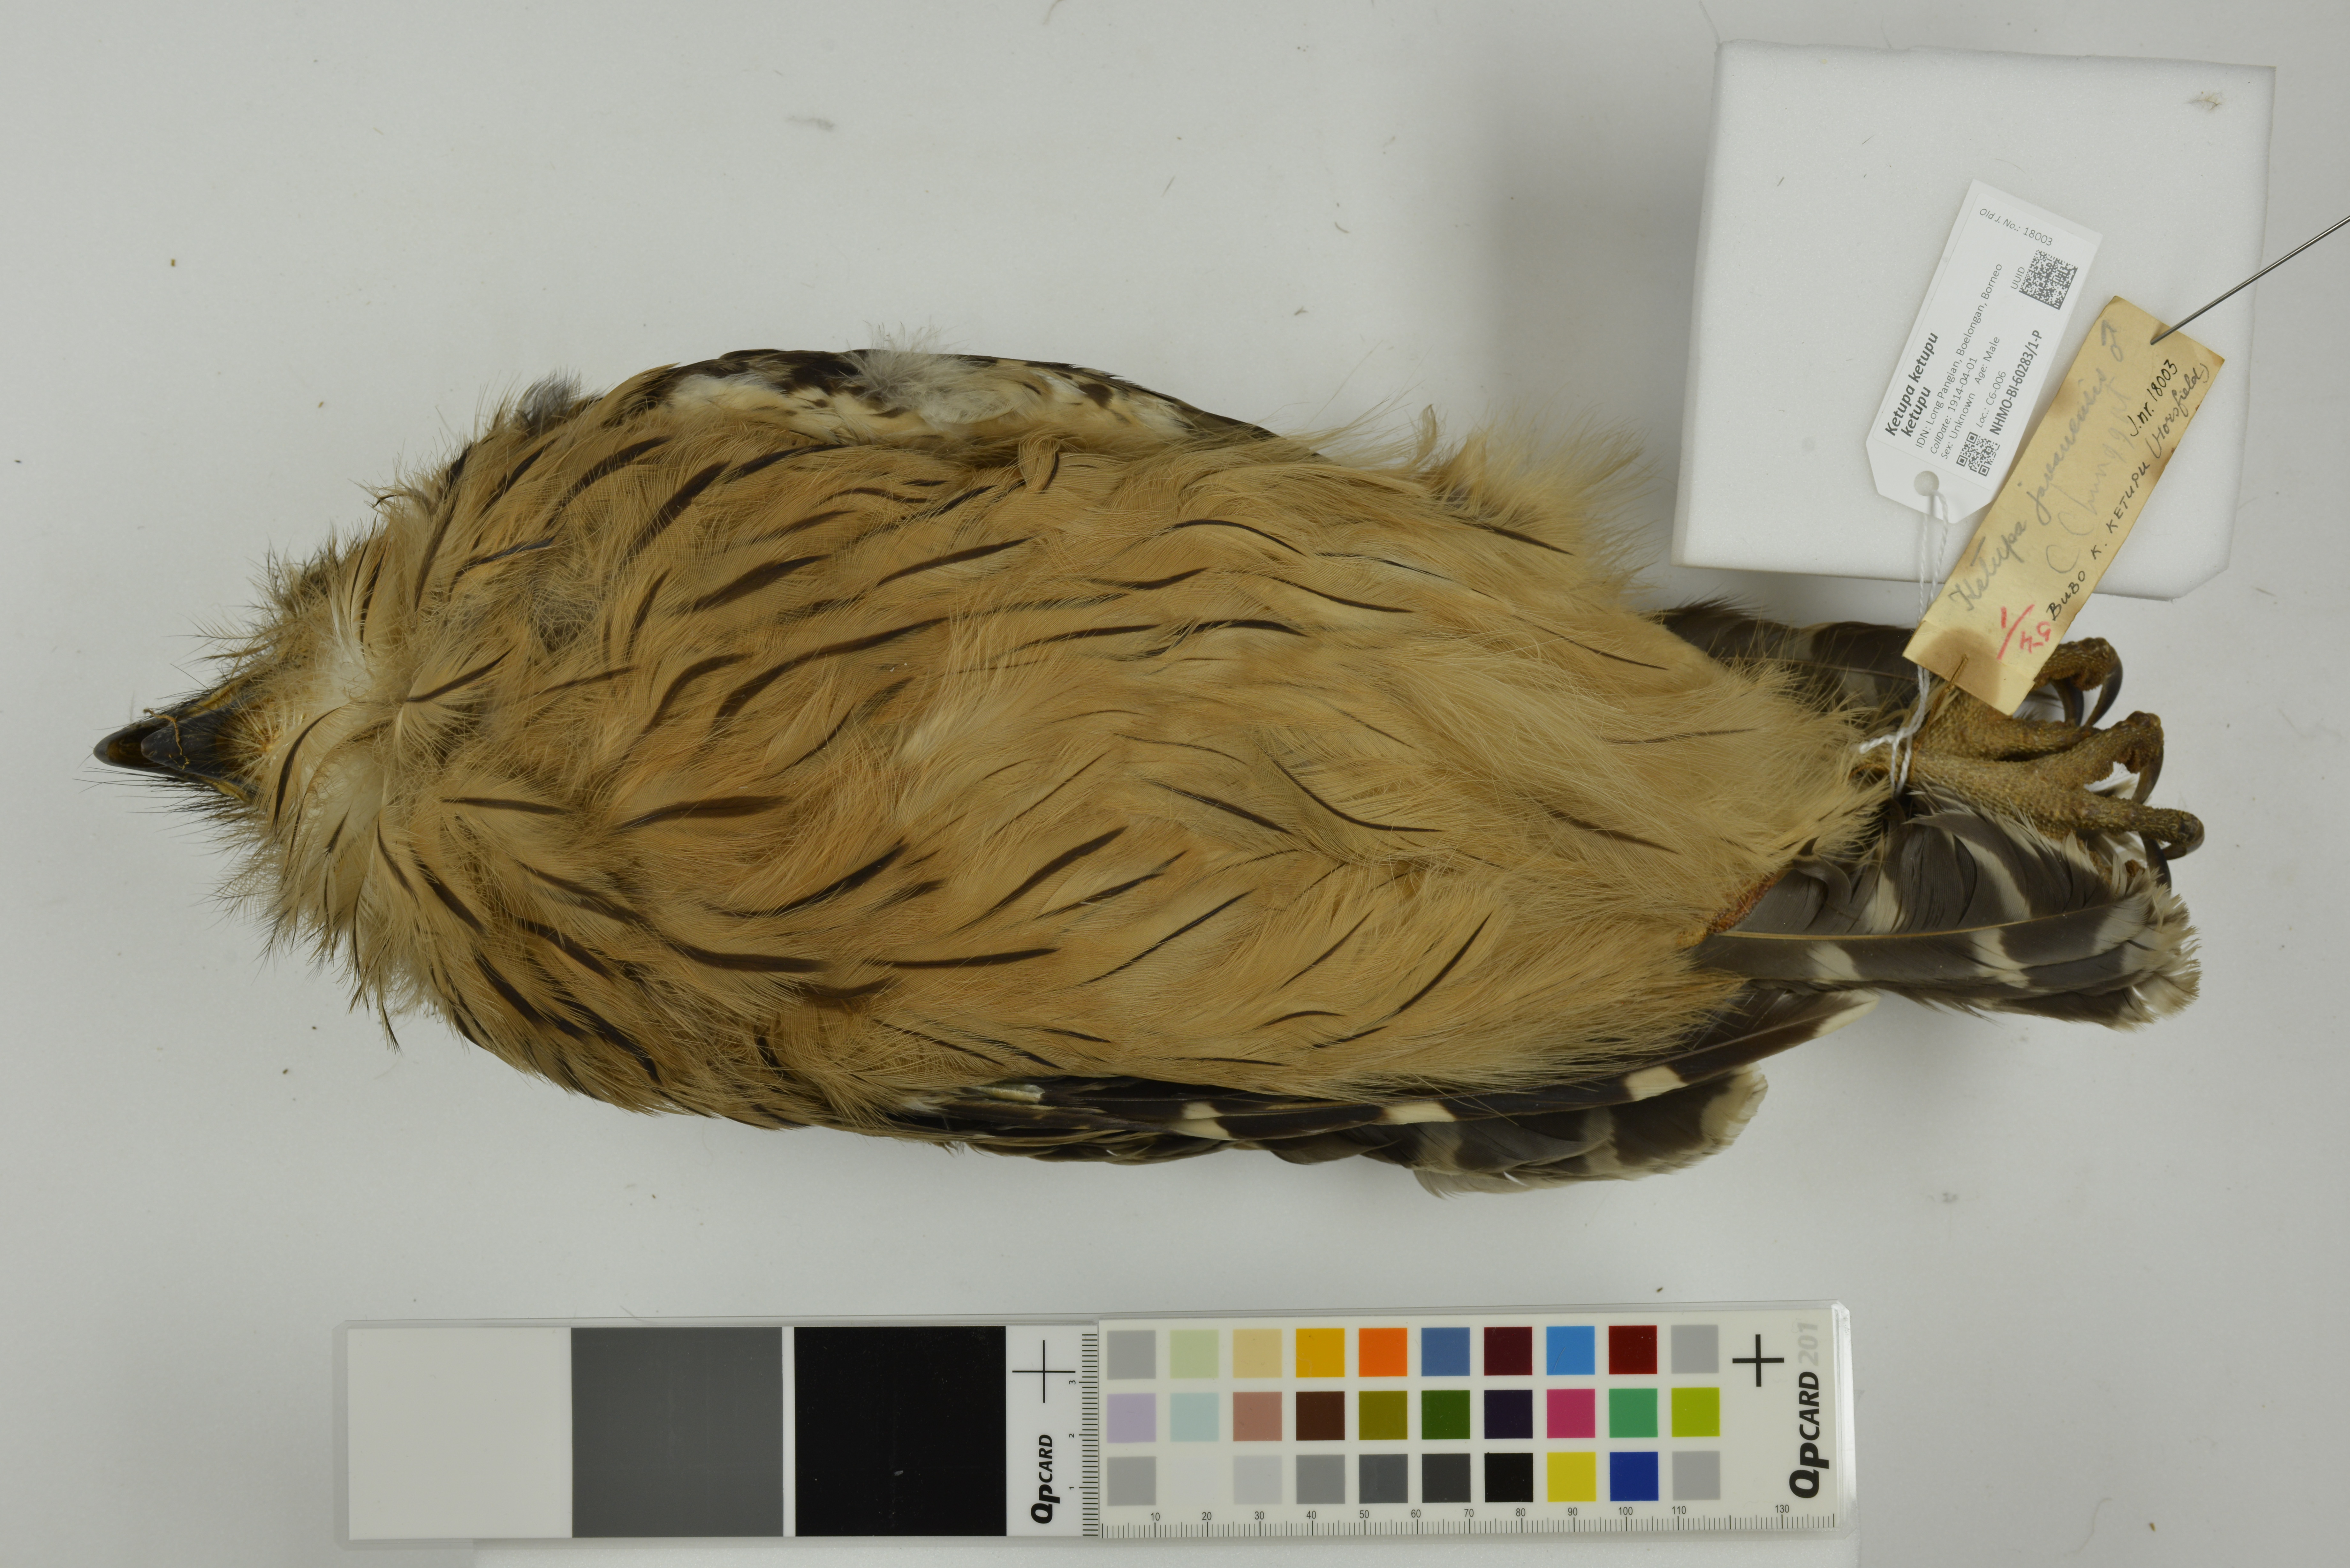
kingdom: Animalia
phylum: Chordata
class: Aves
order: Strigiformes
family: Strigidae
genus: Ketupa
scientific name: Ketupa ketupu
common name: Buffy fish-owl
